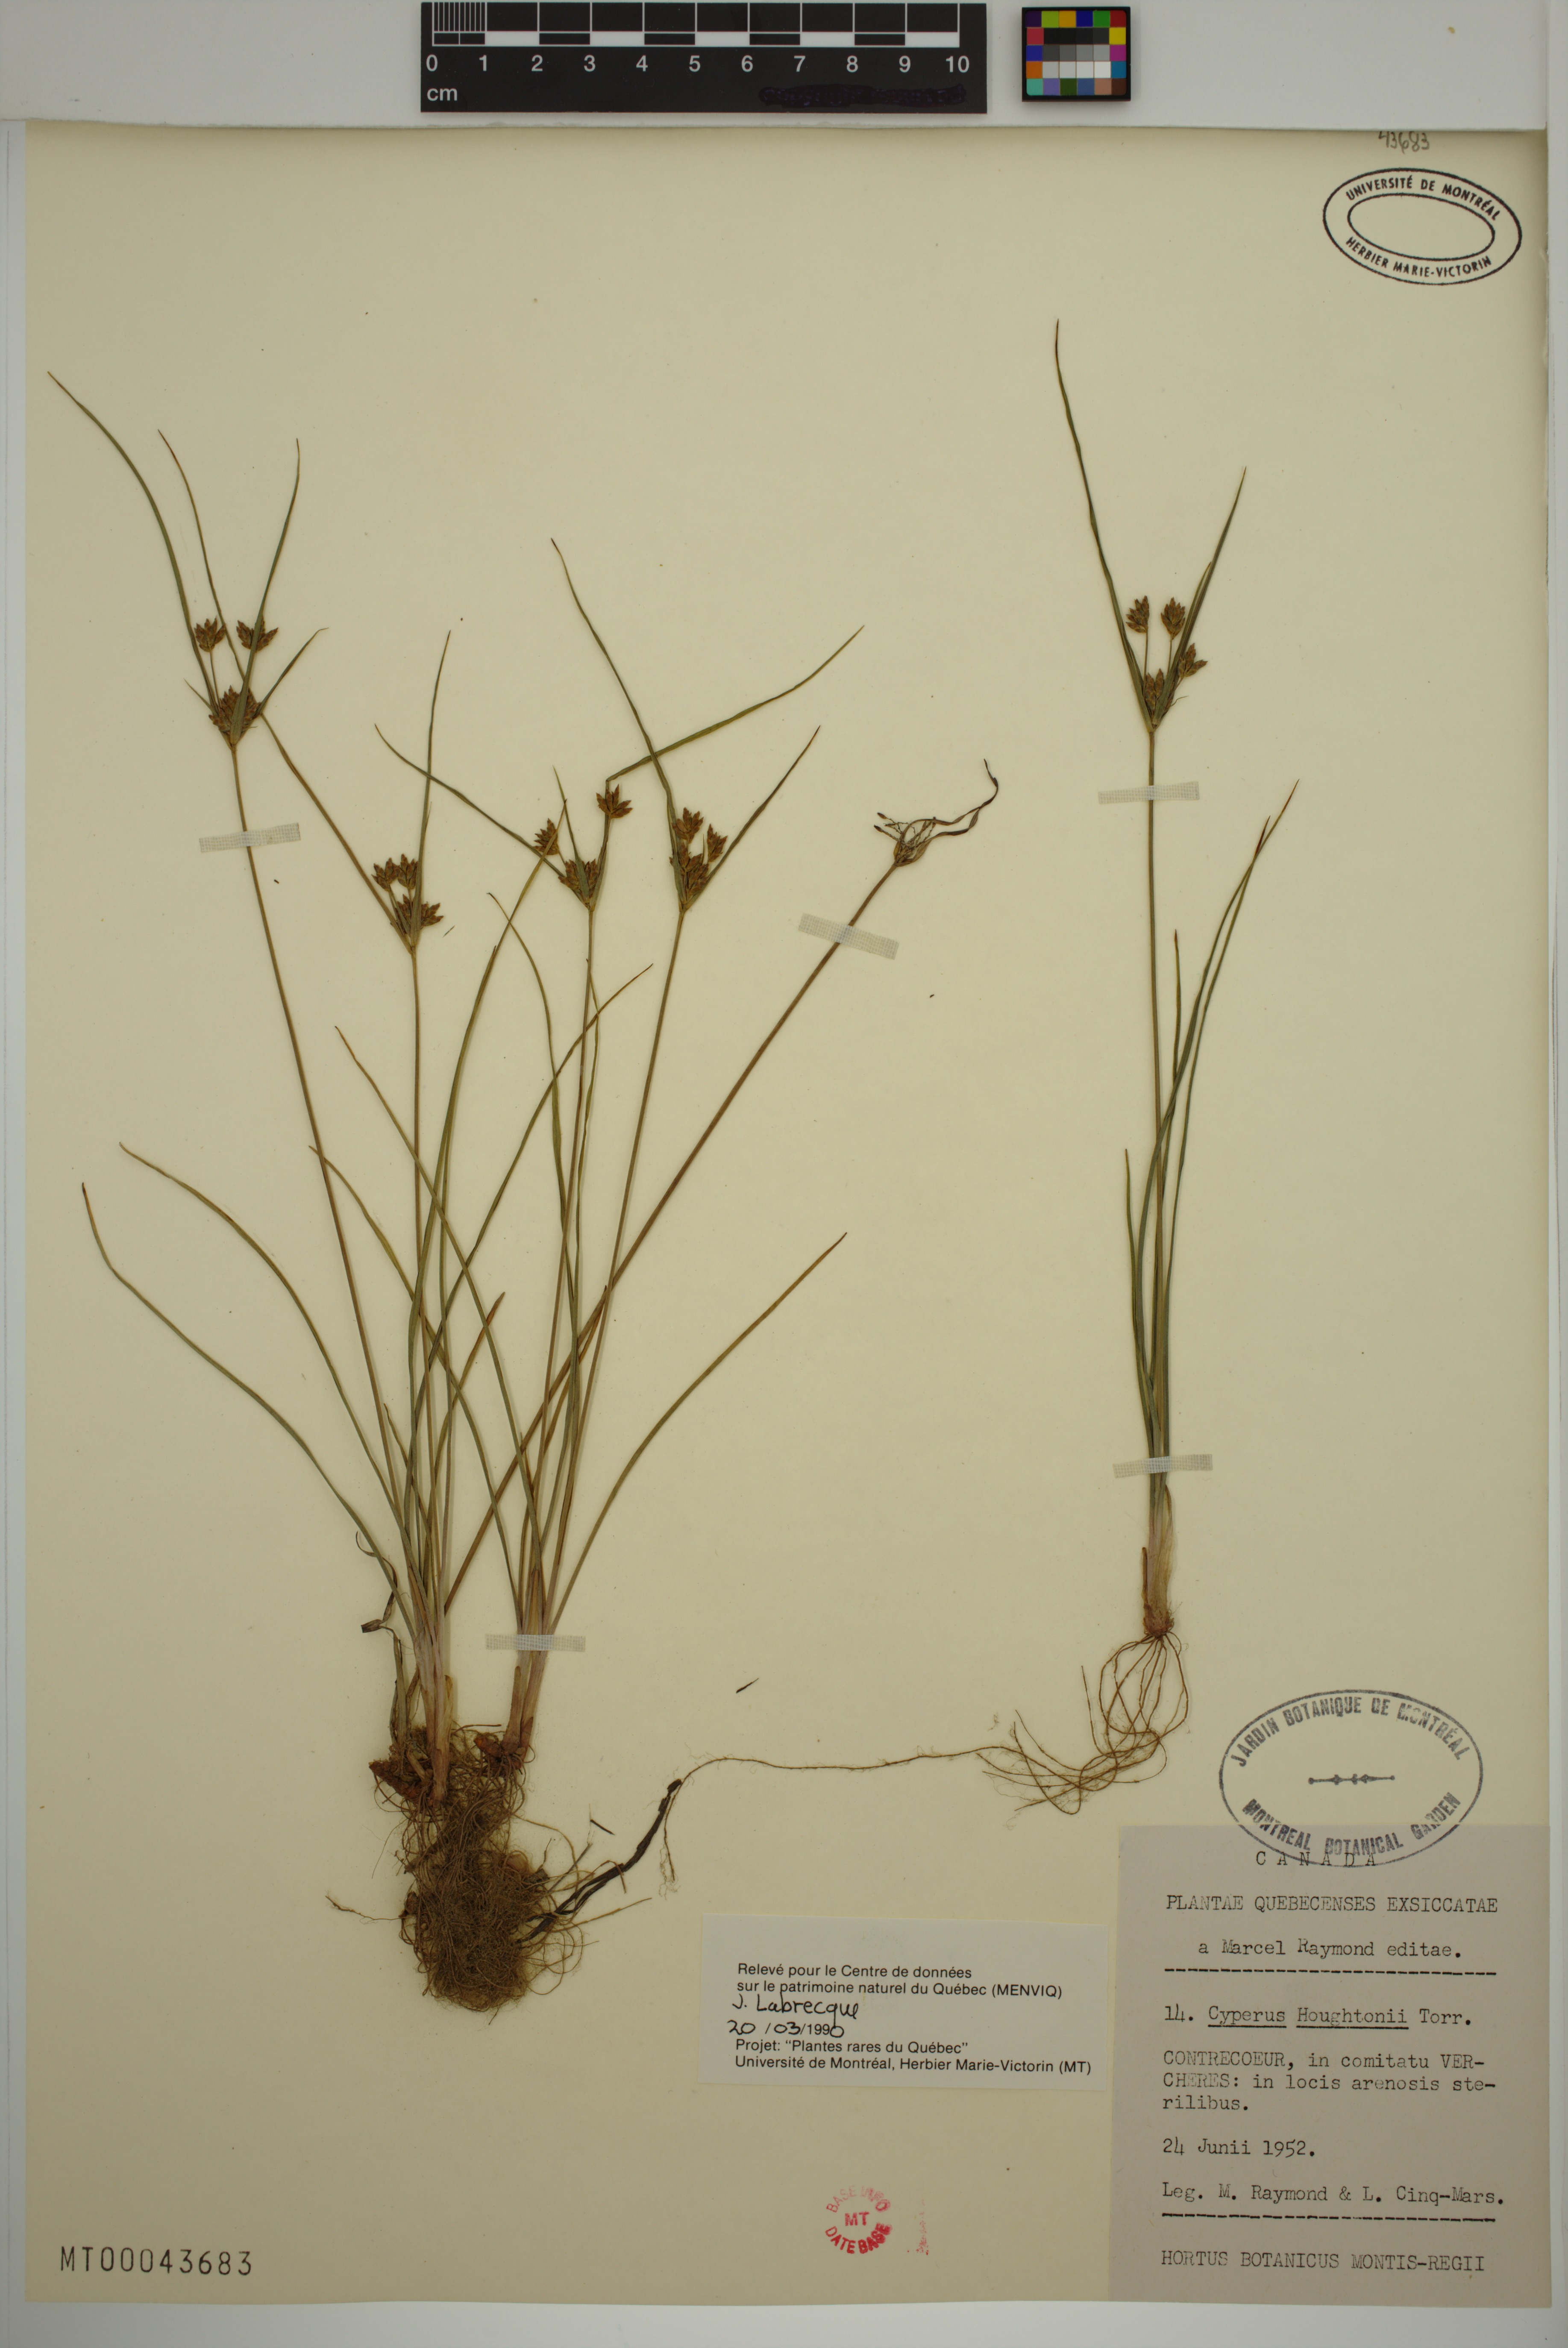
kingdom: Plantae
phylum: Tracheophyta
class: Liliopsida
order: Poales
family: Cyperaceae
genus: Cyperus
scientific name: Cyperus houghtonii
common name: Houghton's cyperus
